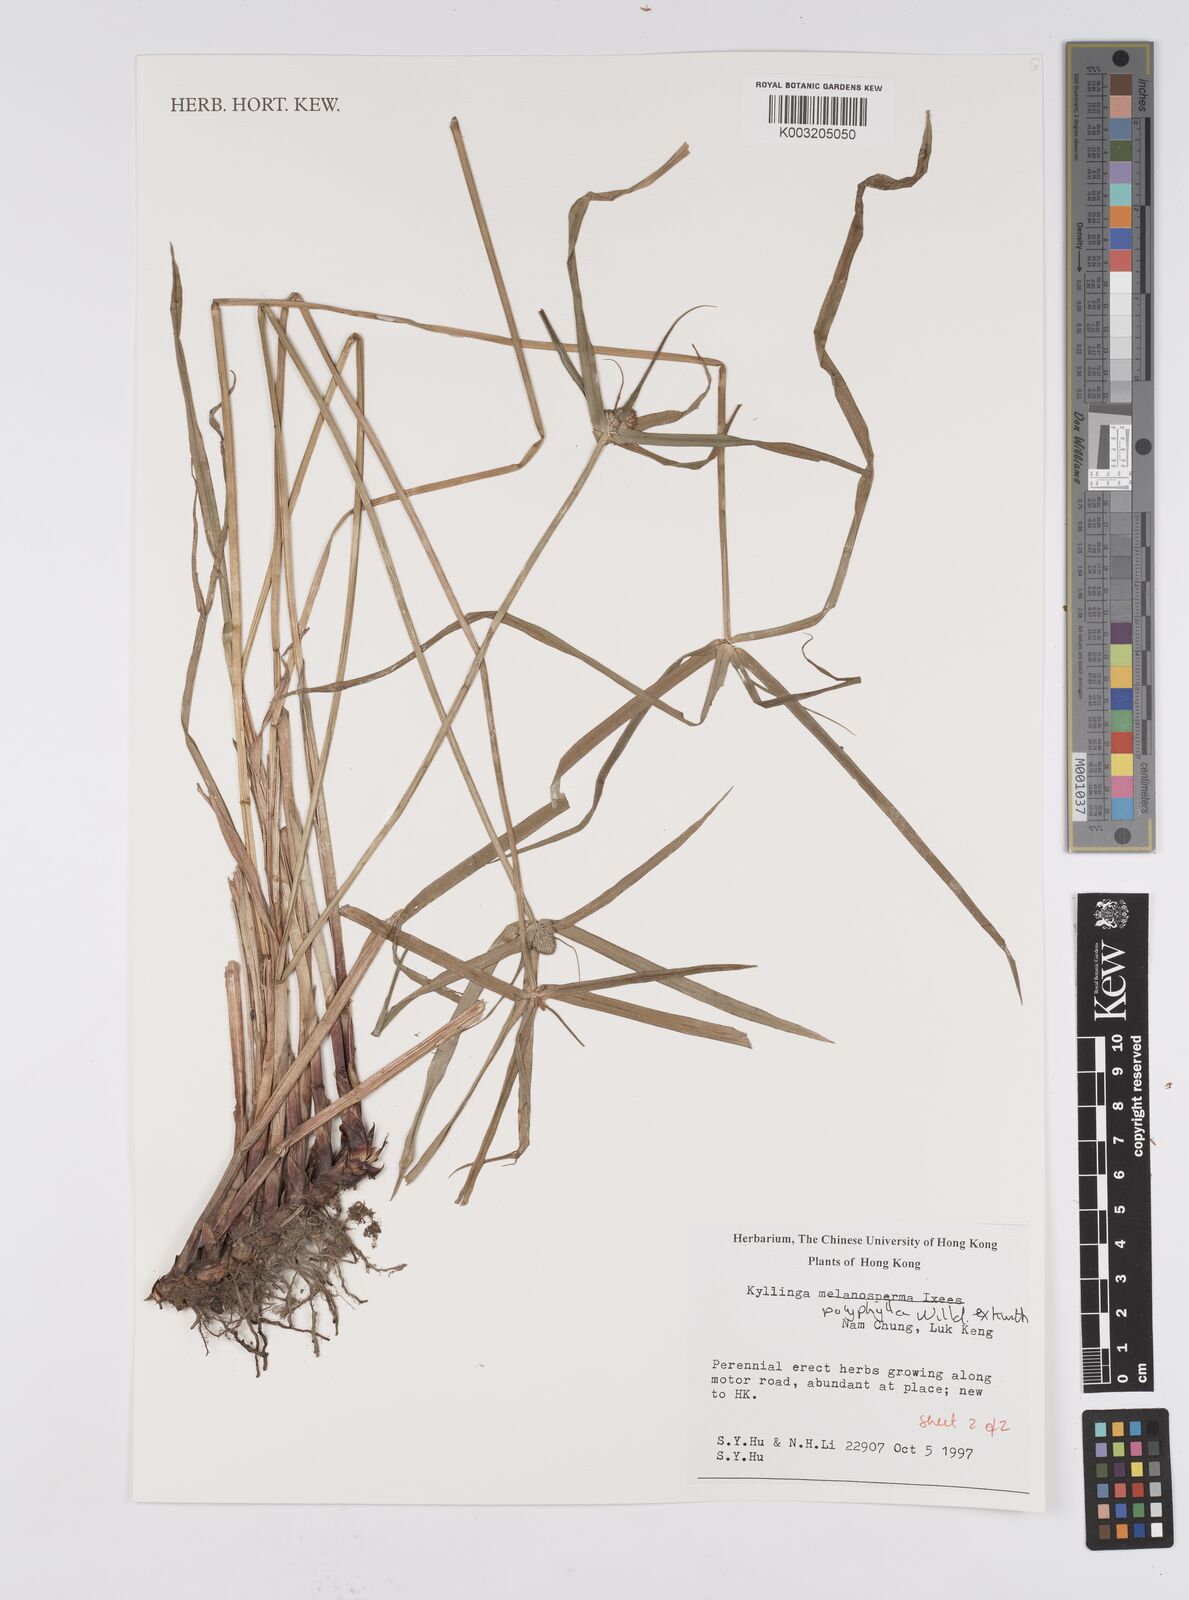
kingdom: Plantae
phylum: Tracheophyta
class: Liliopsida
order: Poales
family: Cyperaceae
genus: Cyperus
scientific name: Cyperus
